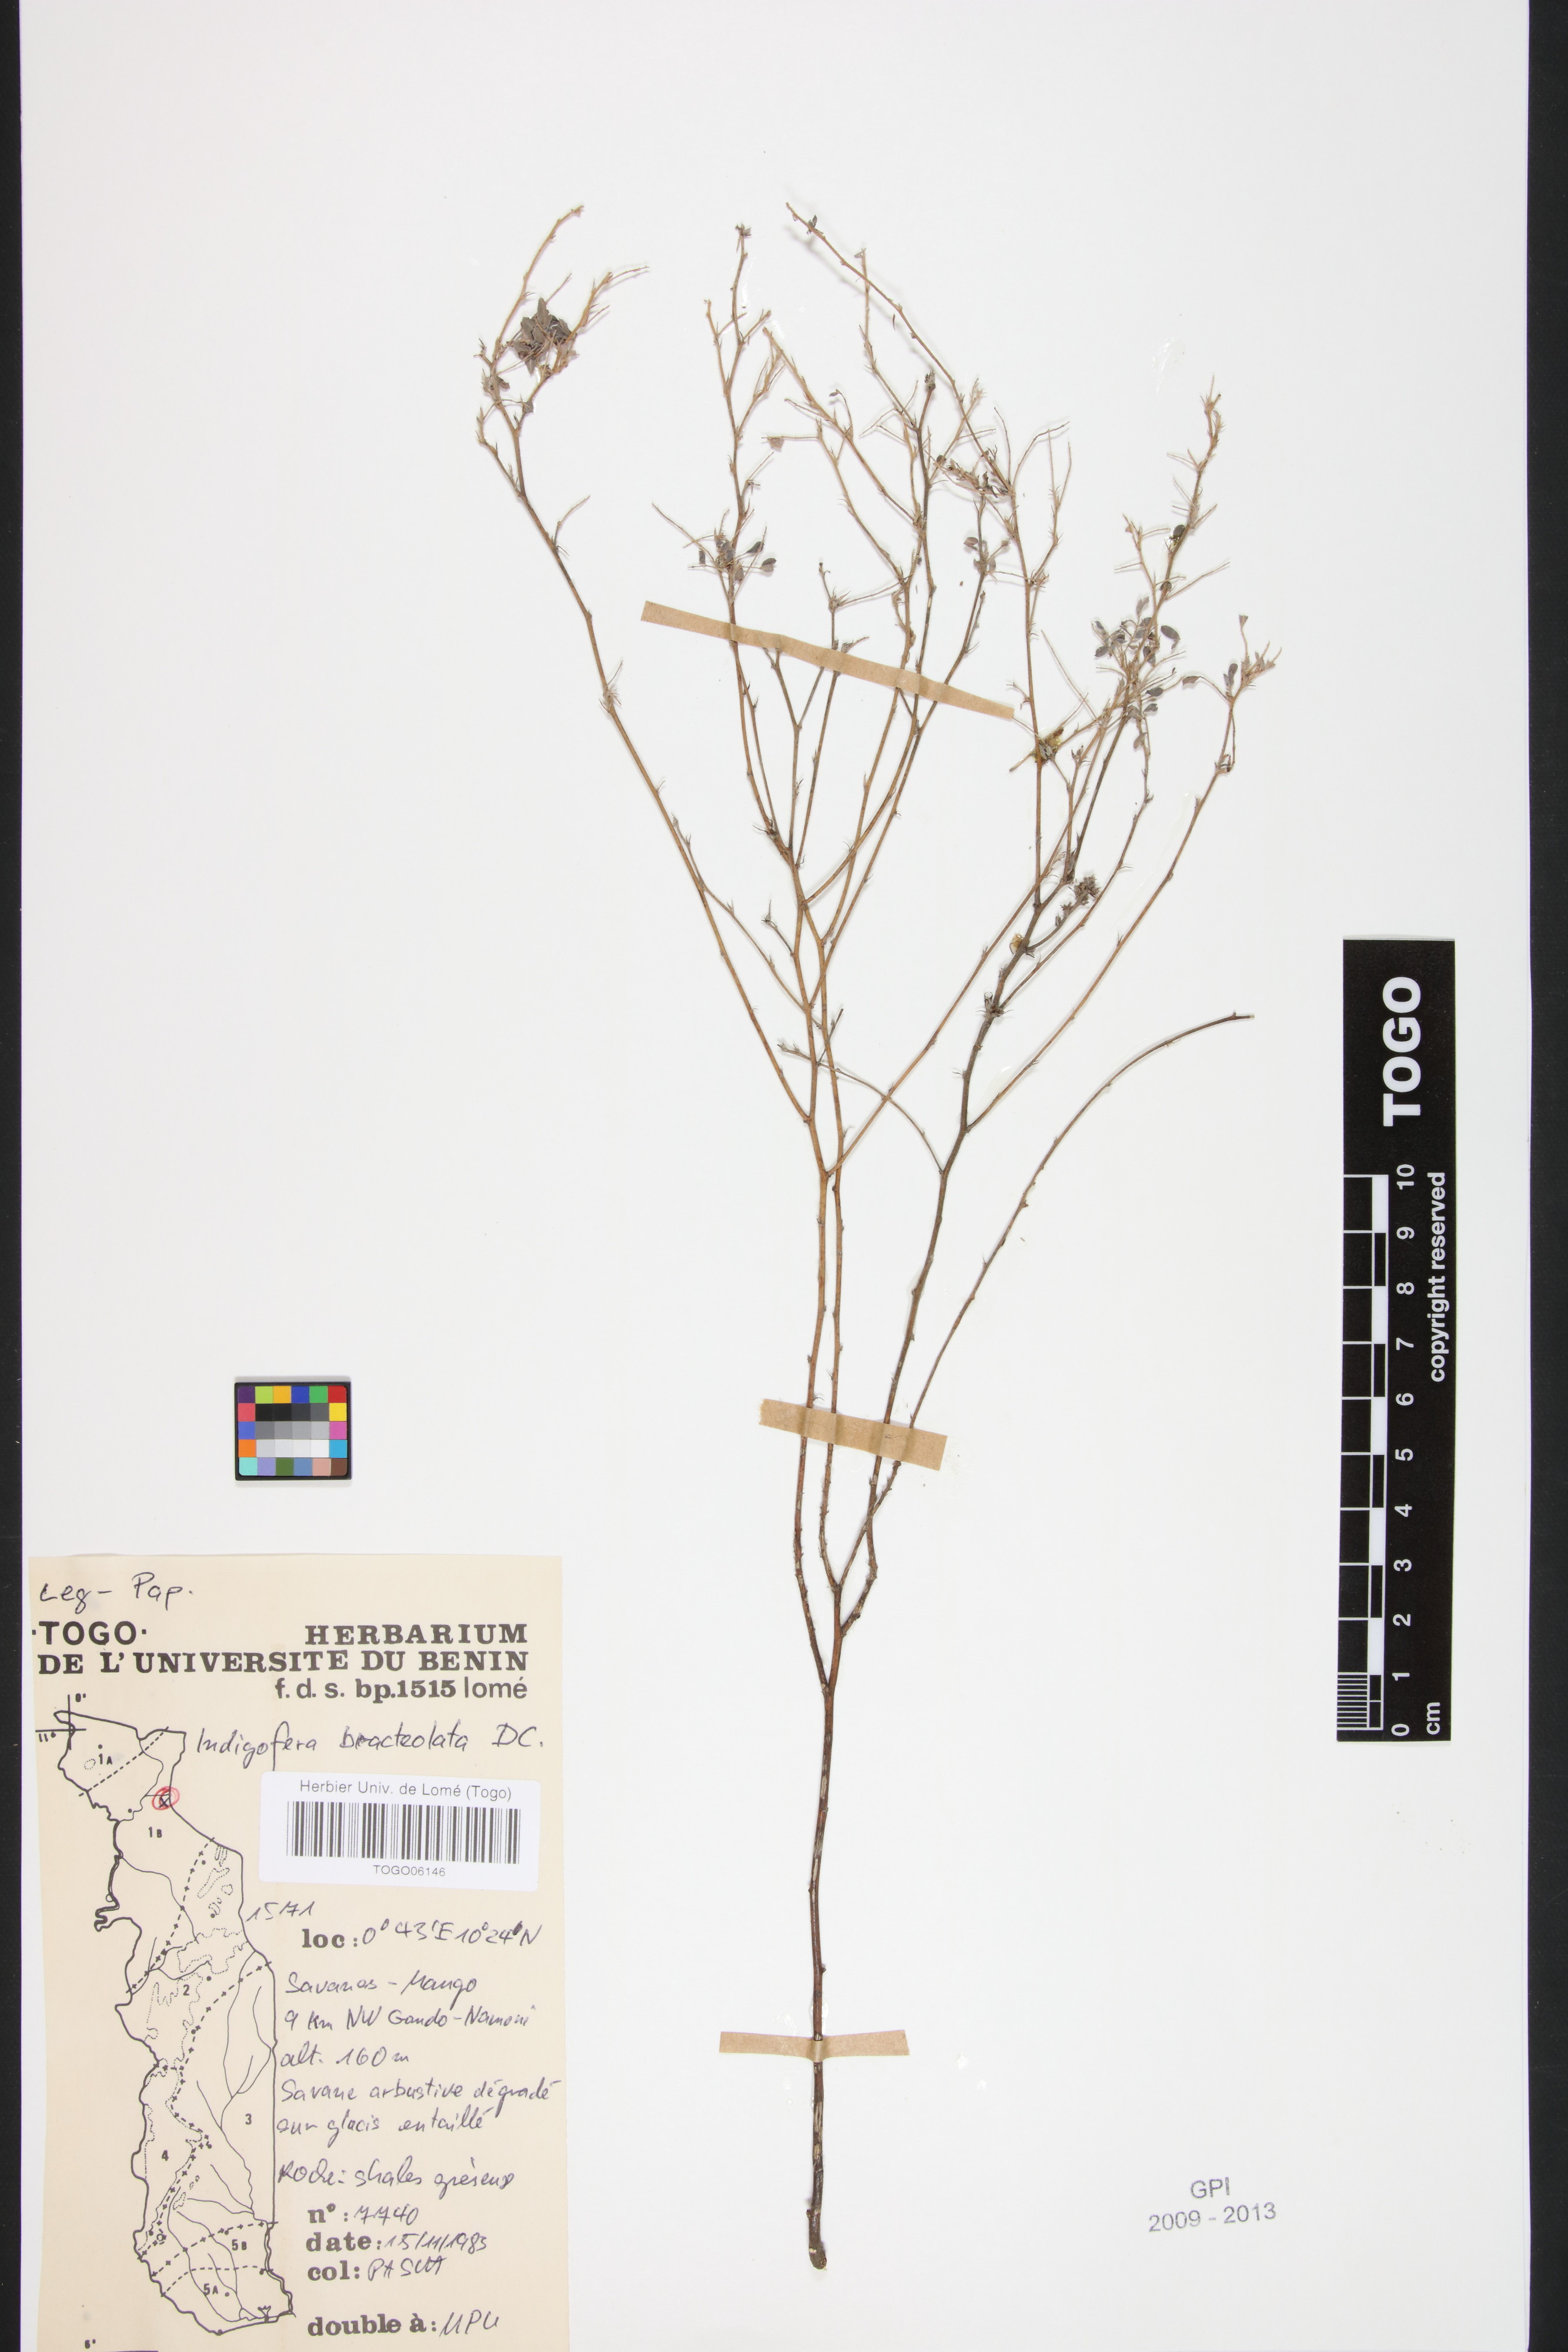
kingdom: Plantae
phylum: Tracheophyta
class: Magnoliopsida
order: Fabales
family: Fabaceae
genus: Indigofera
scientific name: Indigofera bracteolata
